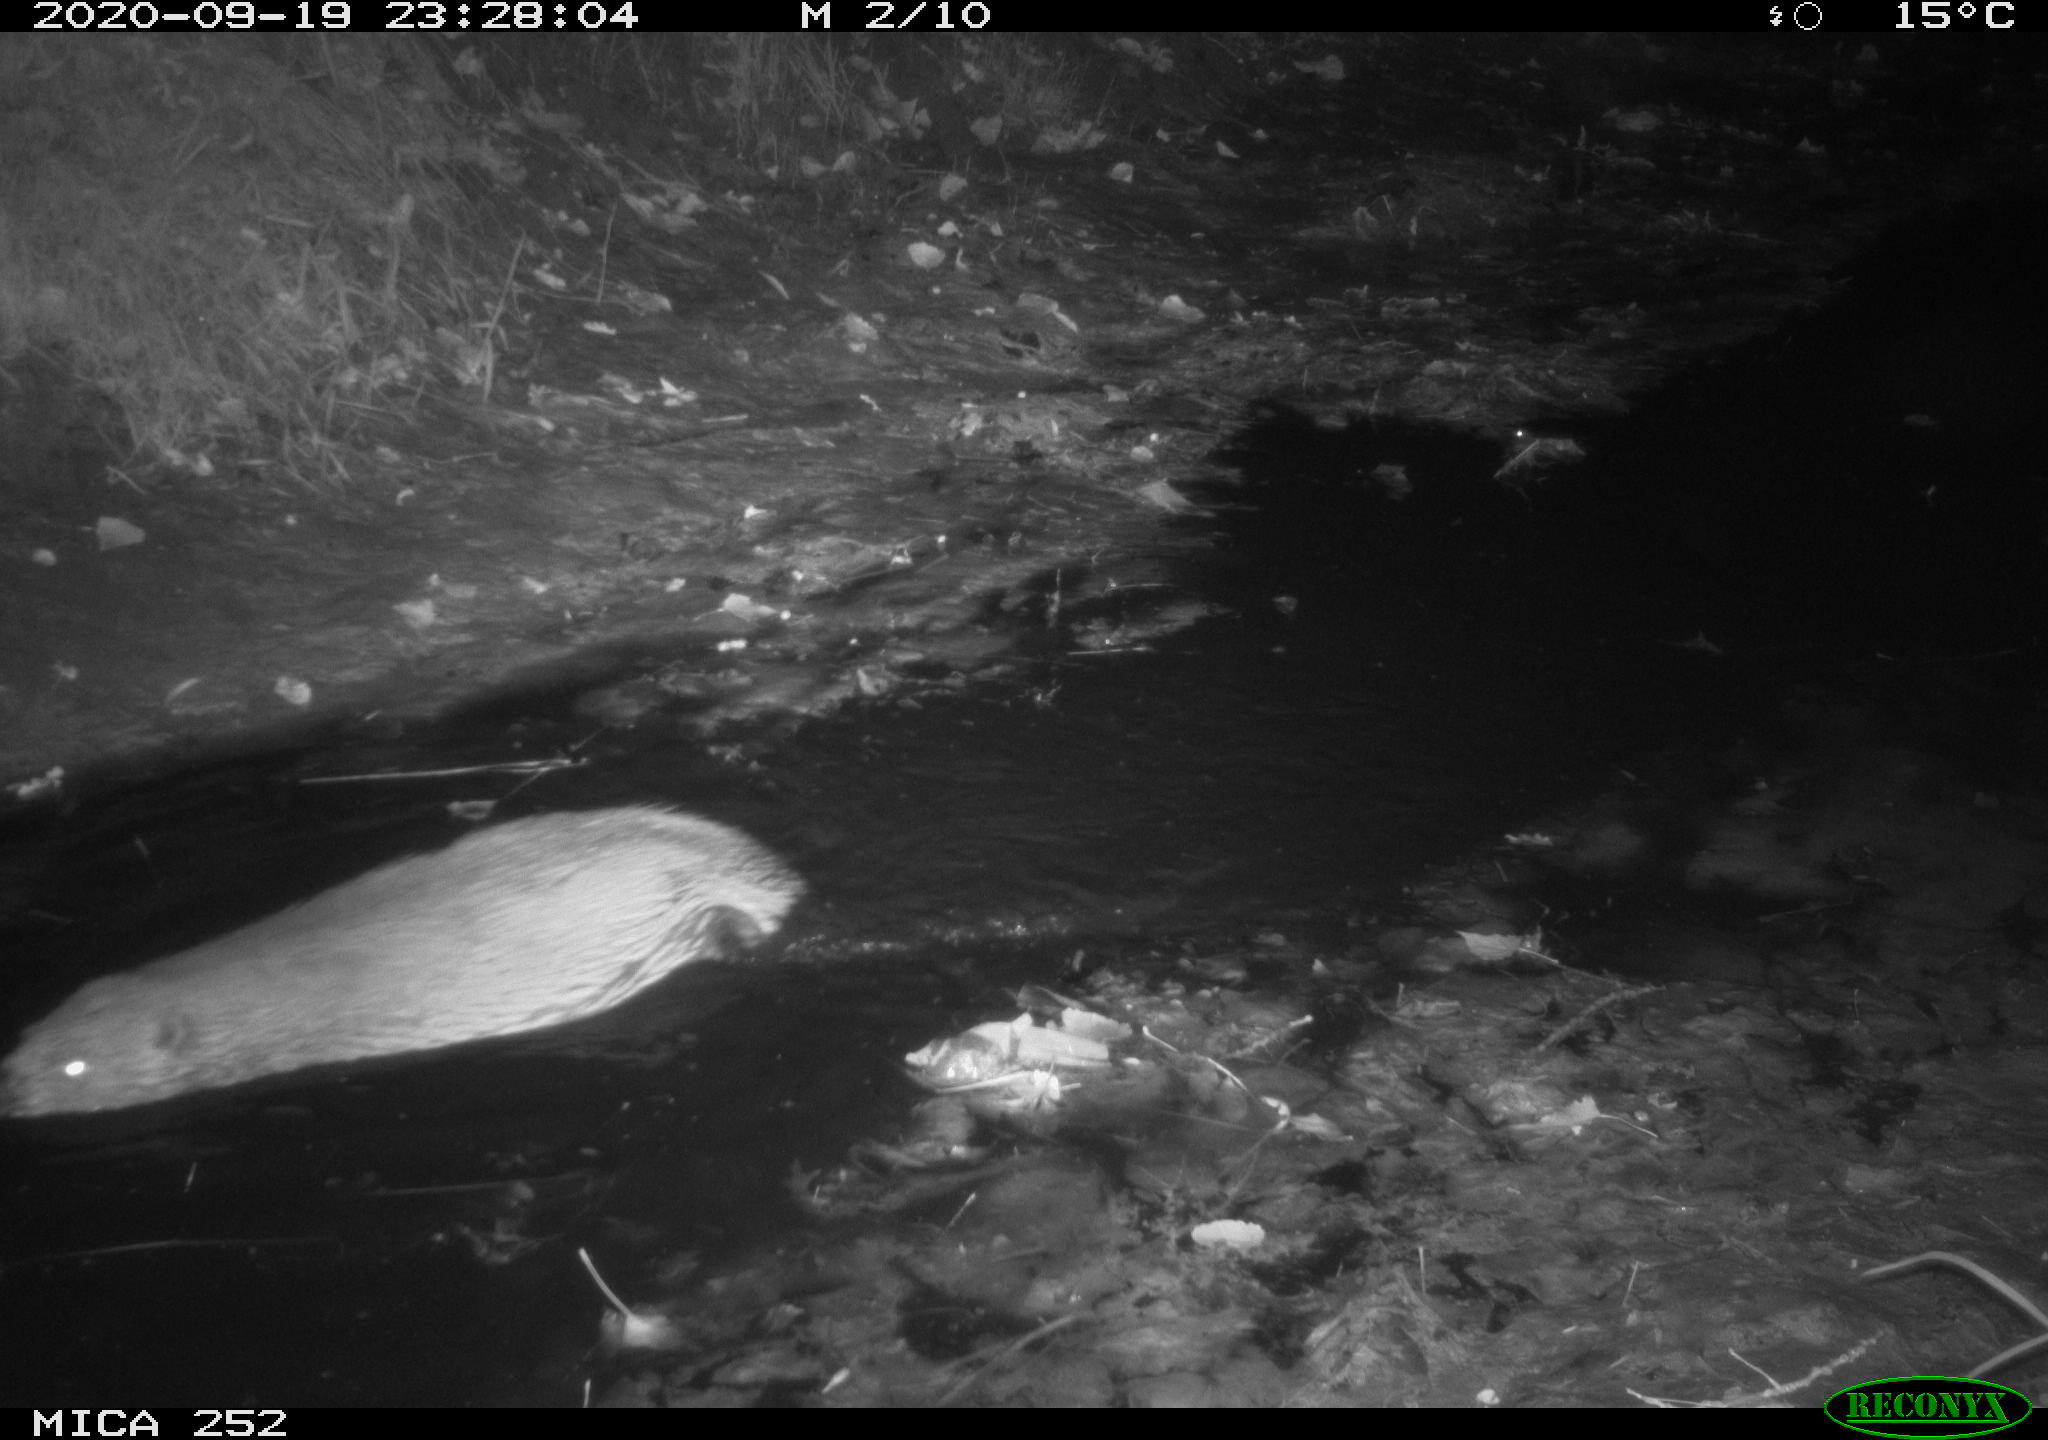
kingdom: Animalia
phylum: Chordata
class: Mammalia
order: Rodentia
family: Castoridae
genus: Castor
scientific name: Castor fiber
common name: Eurasian beaver
